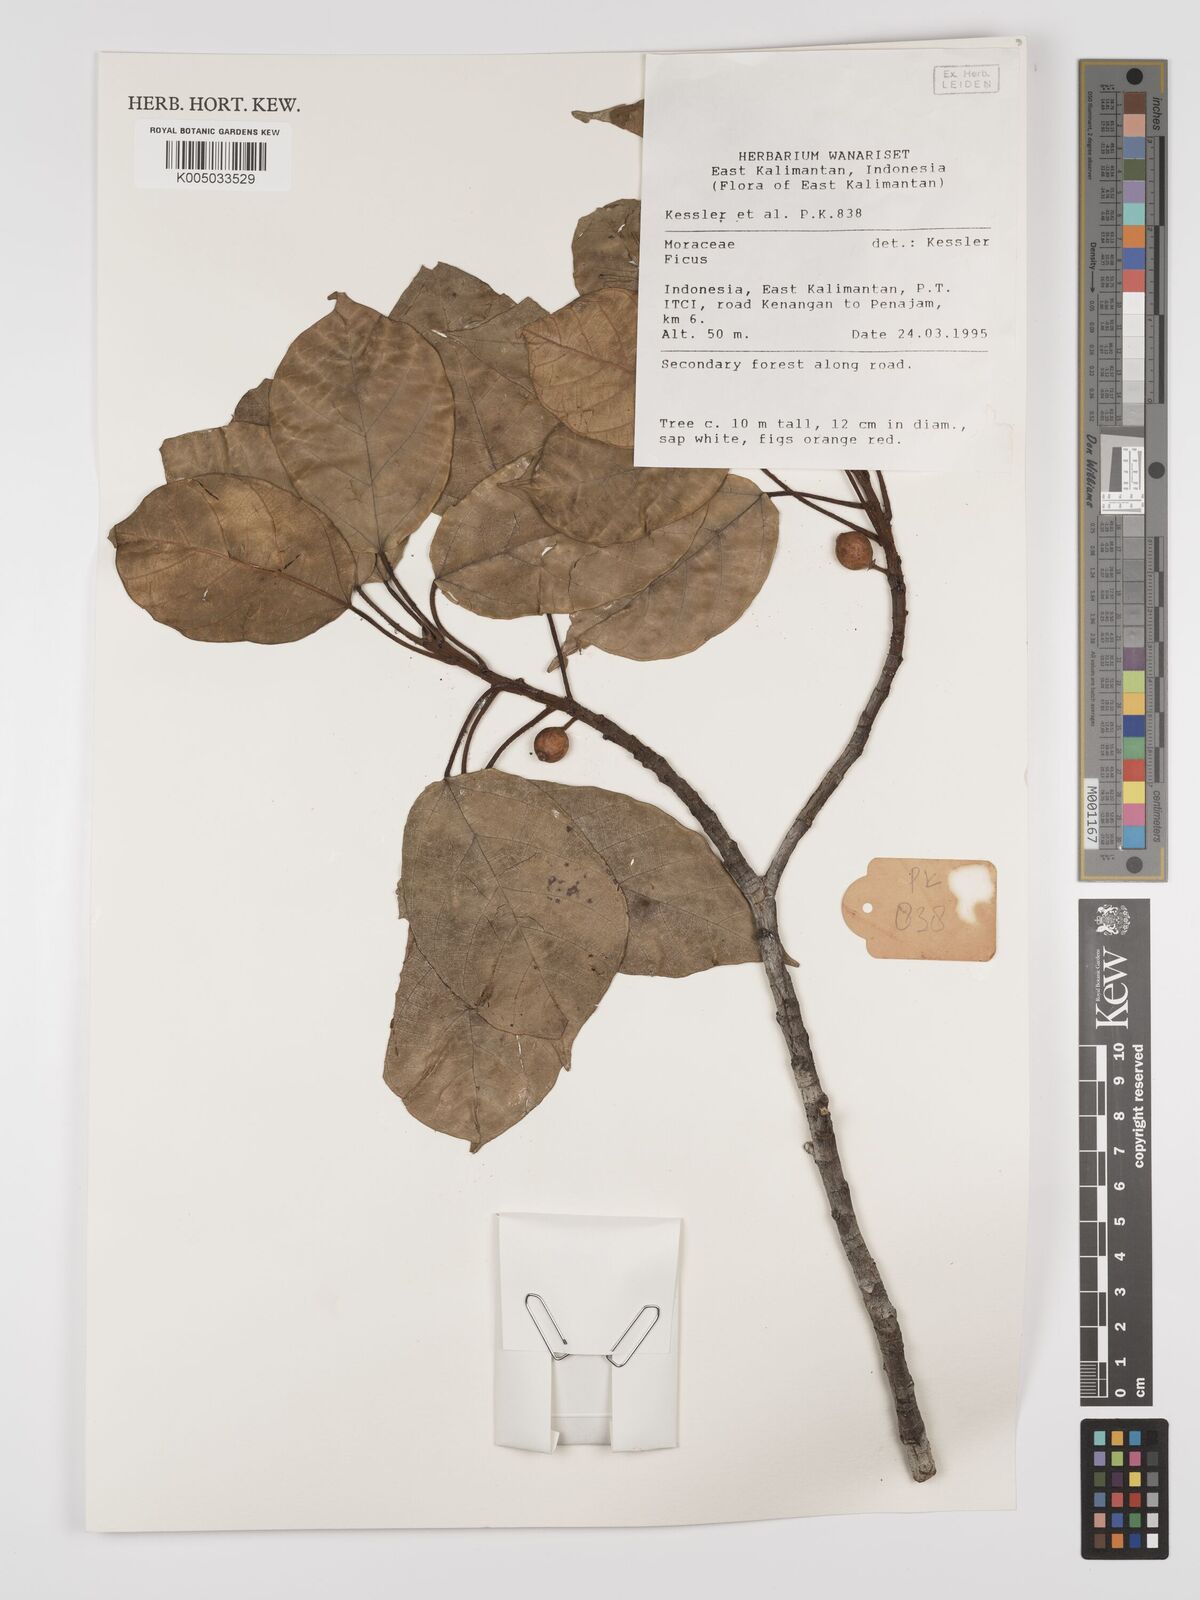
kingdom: Plantae
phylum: Tracheophyta
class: Magnoliopsida
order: Rosales
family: Moraceae
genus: Ficus
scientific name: Ficus
